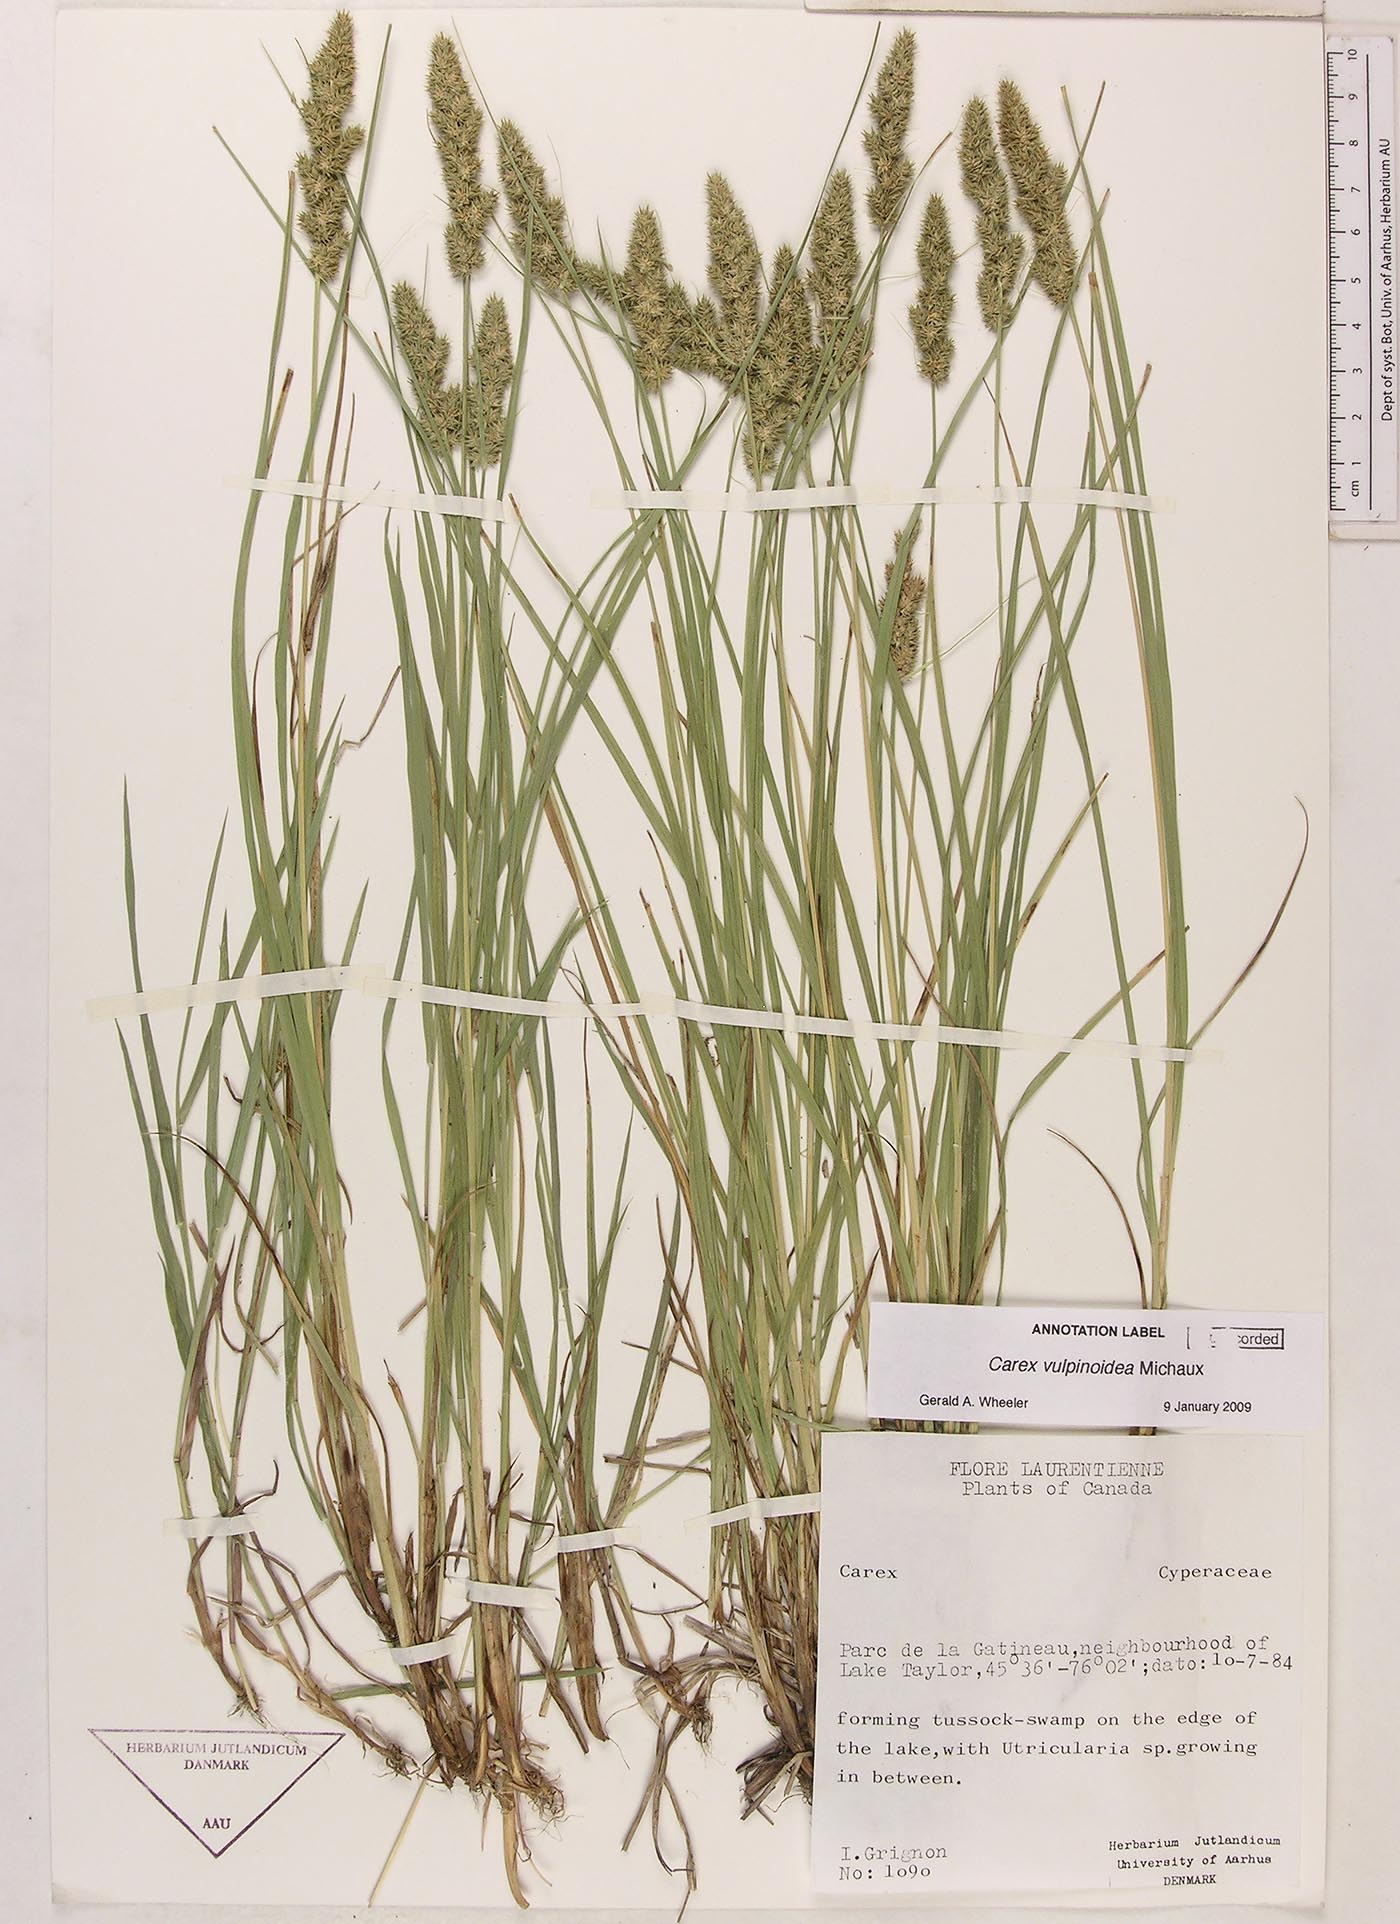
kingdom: Plantae
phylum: Tracheophyta
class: Liliopsida
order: Poales
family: Cyperaceae
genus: Carex
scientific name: Carex vulpinoidea
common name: American fox-sedge
